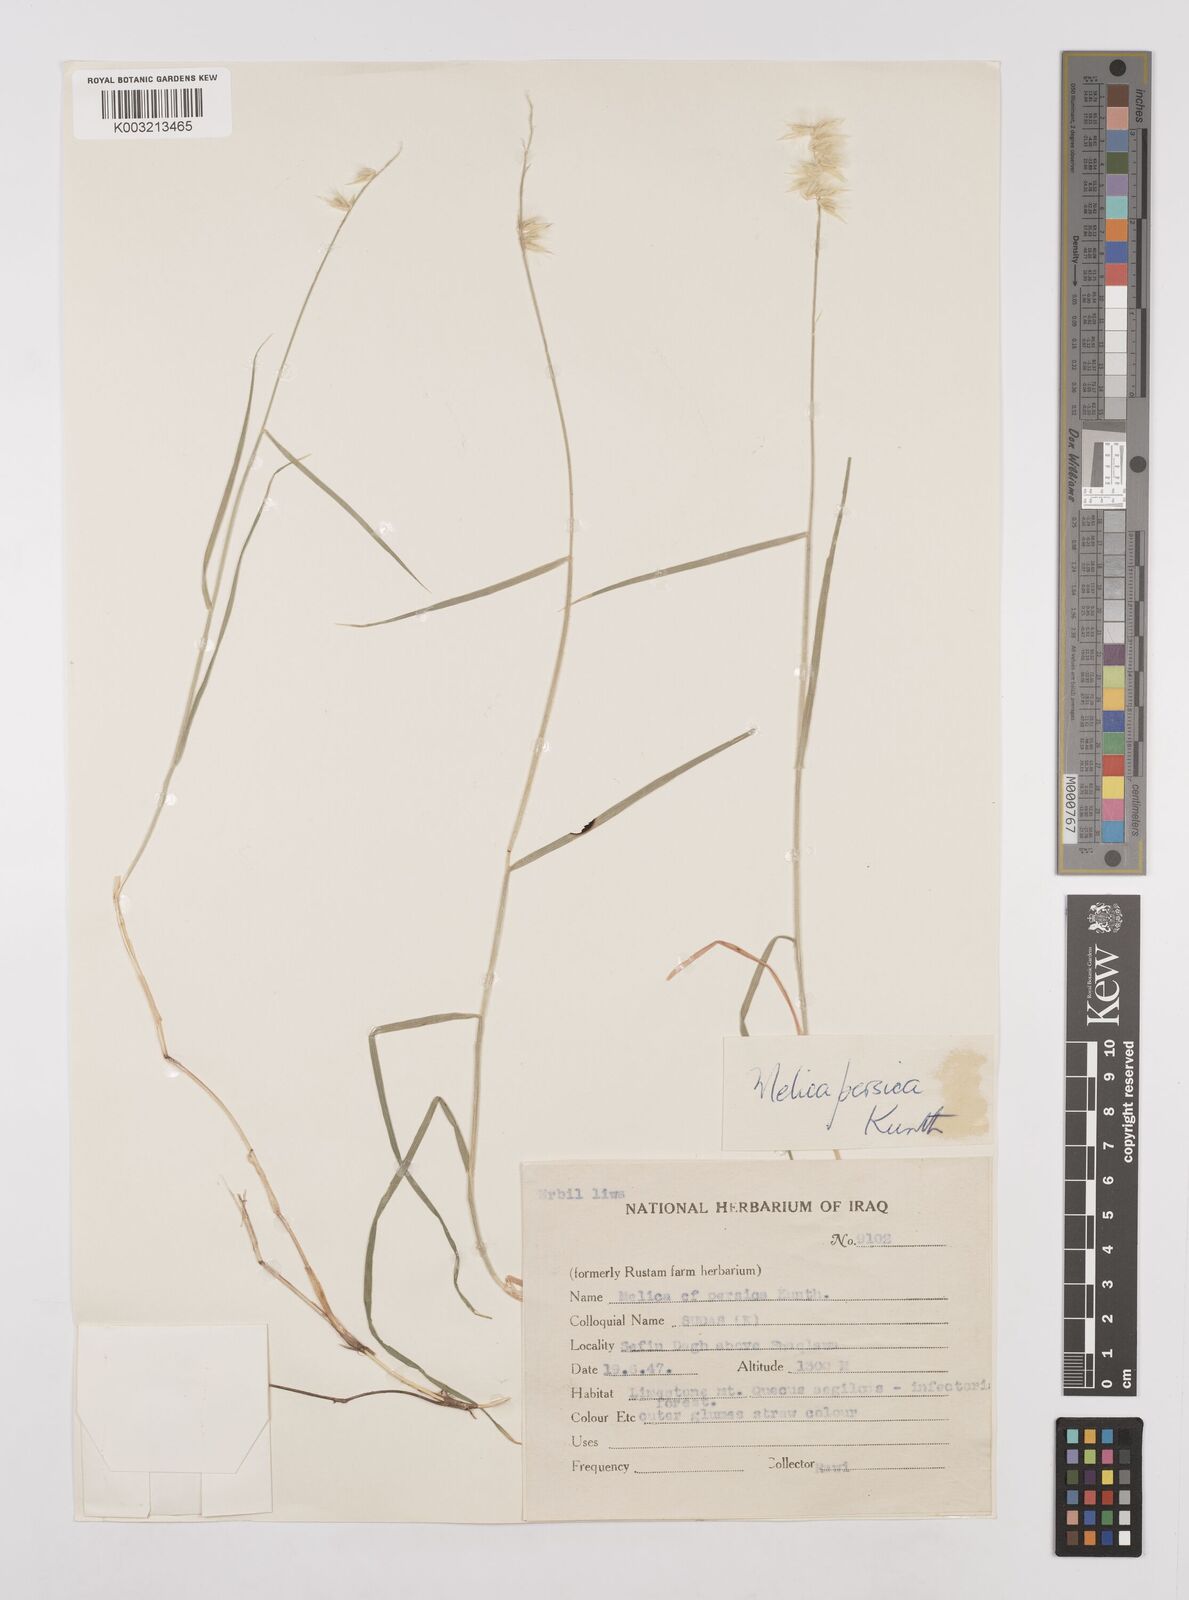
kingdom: Plantae
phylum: Tracheophyta
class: Liliopsida
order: Poales
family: Poaceae
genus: Melica
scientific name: Melica persica
